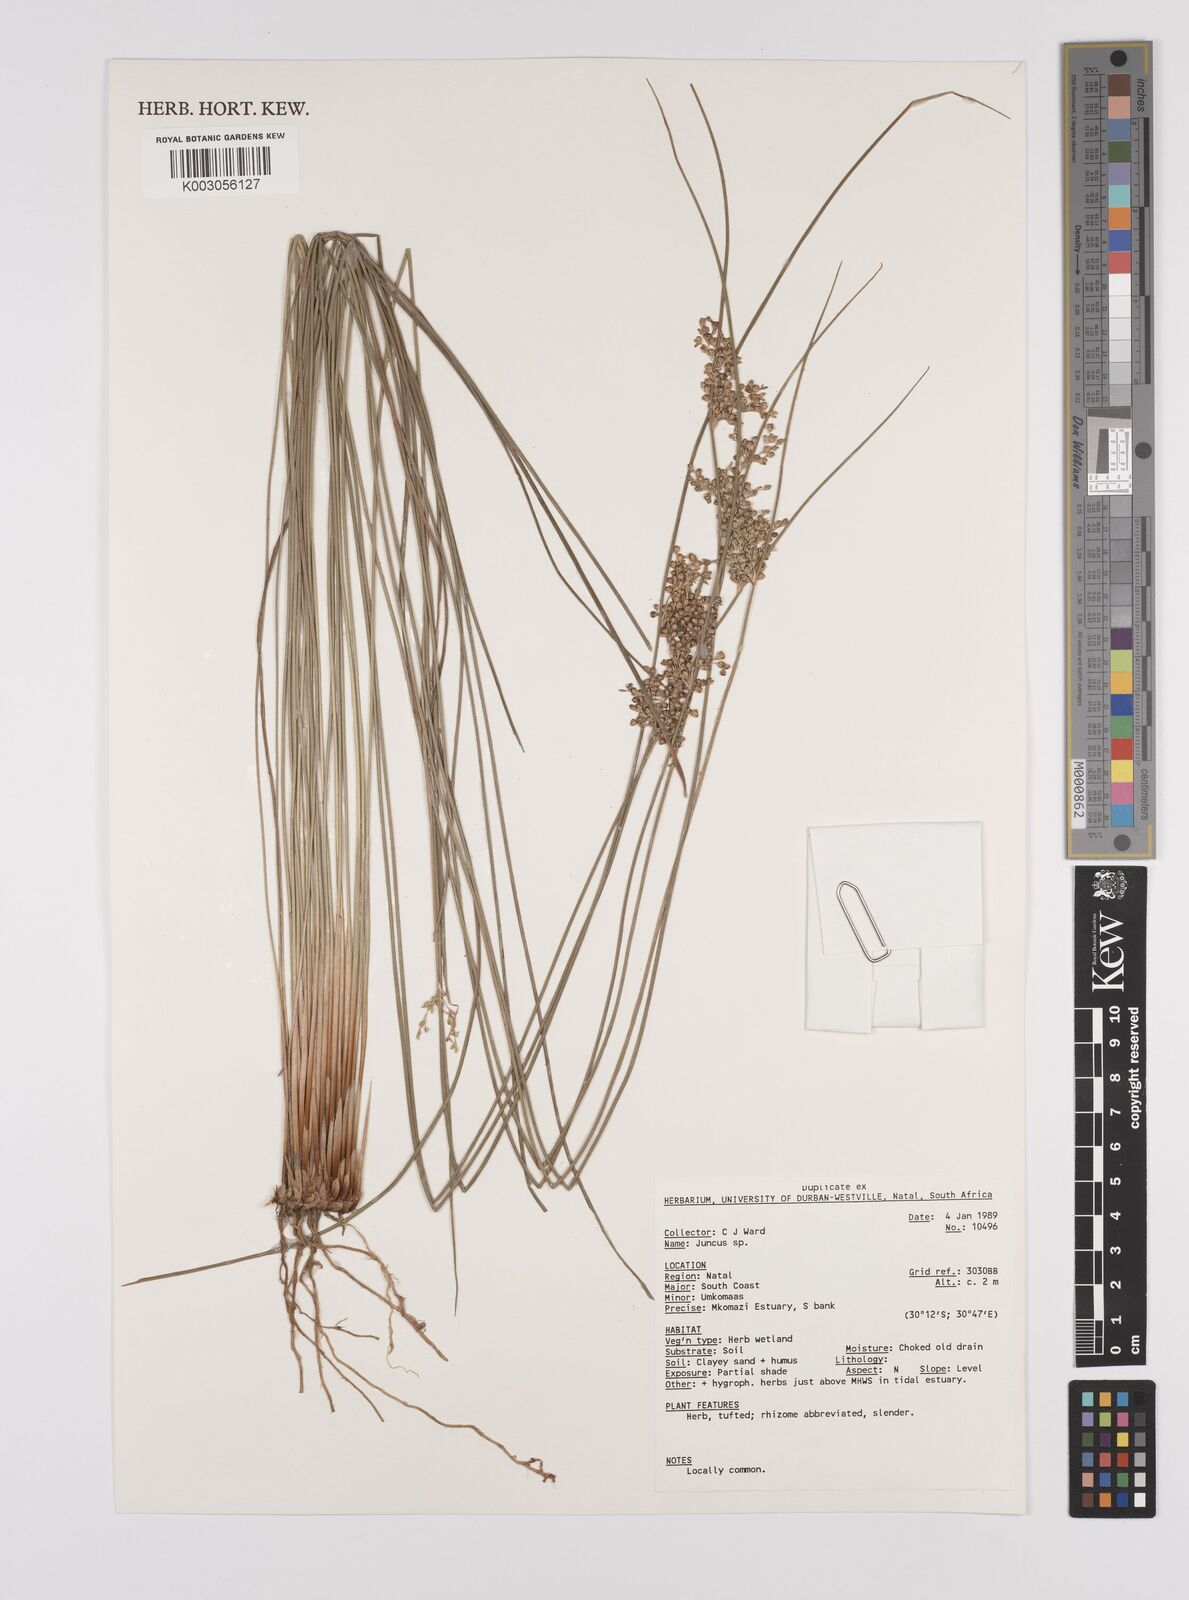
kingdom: Plantae
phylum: Tracheophyta
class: Liliopsida
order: Poales
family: Juncaceae
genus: Juncus
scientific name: Juncus
